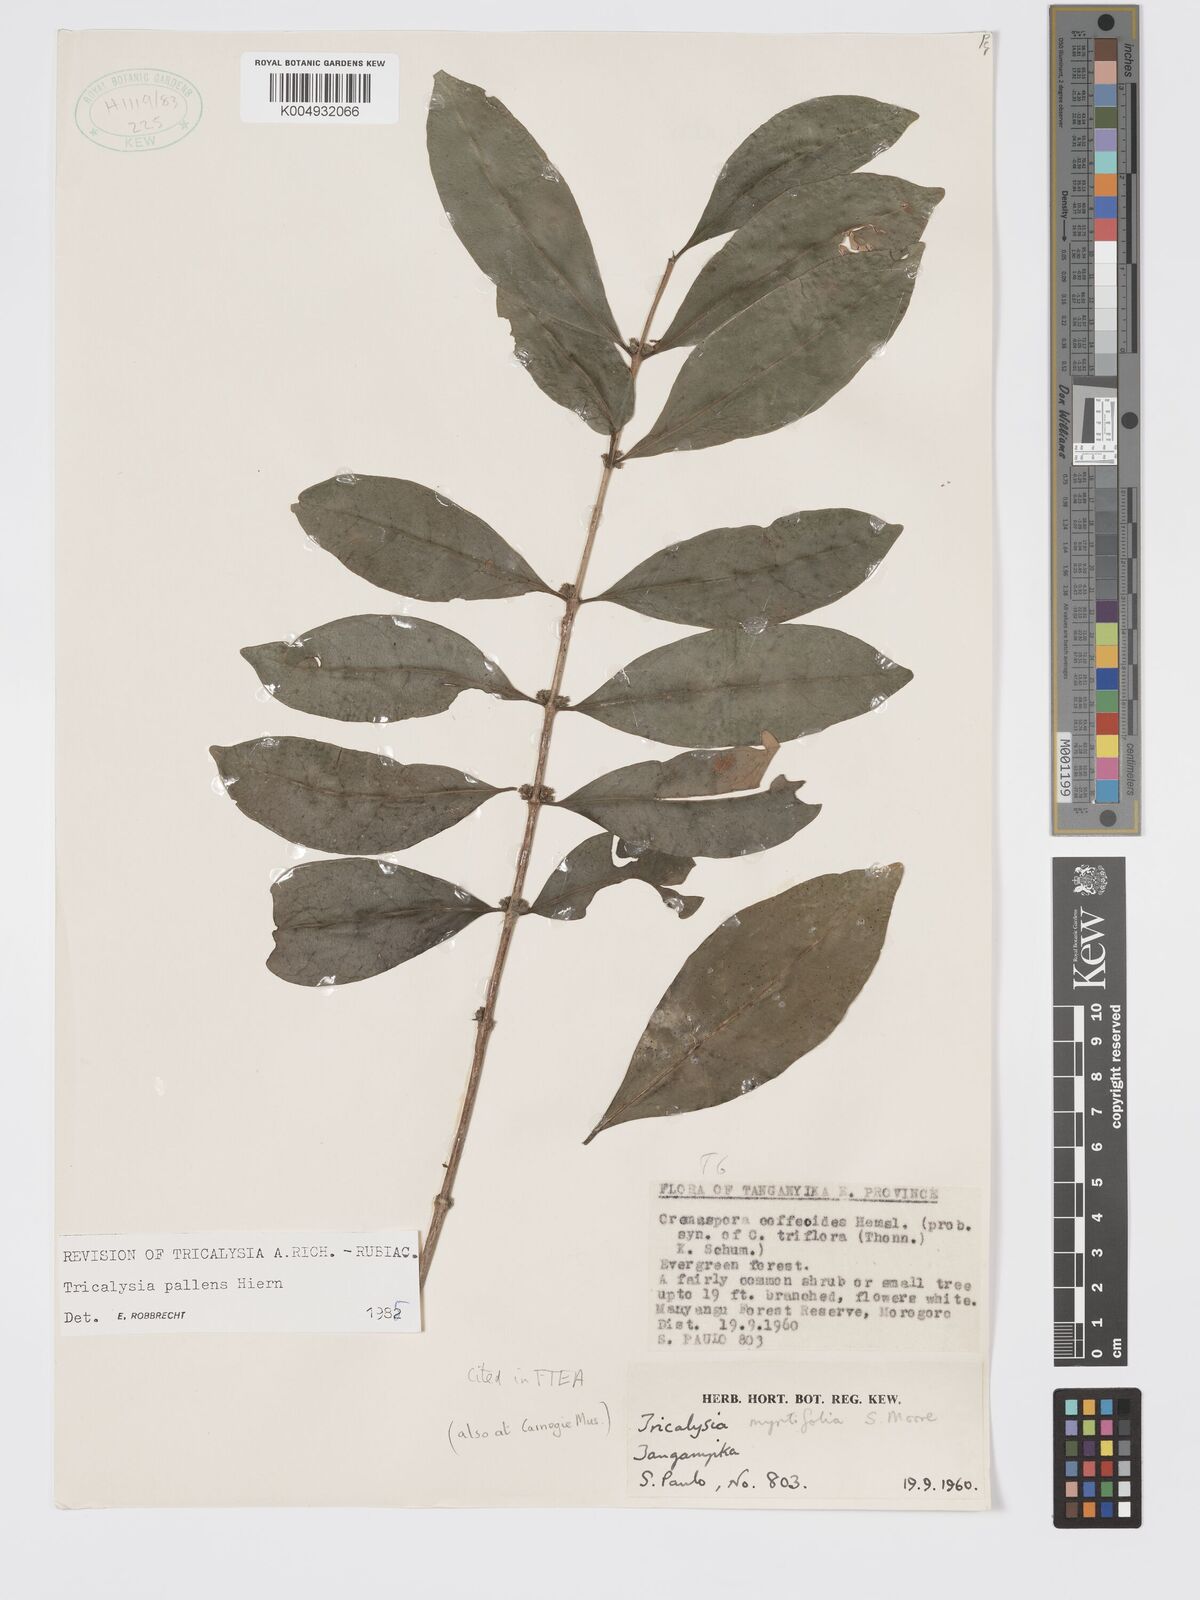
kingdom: Plantae
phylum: Tracheophyta
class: Magnoliopsida
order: Gentianales
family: Rubiaceae
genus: Tricalysia
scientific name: Tricalysia pallens
